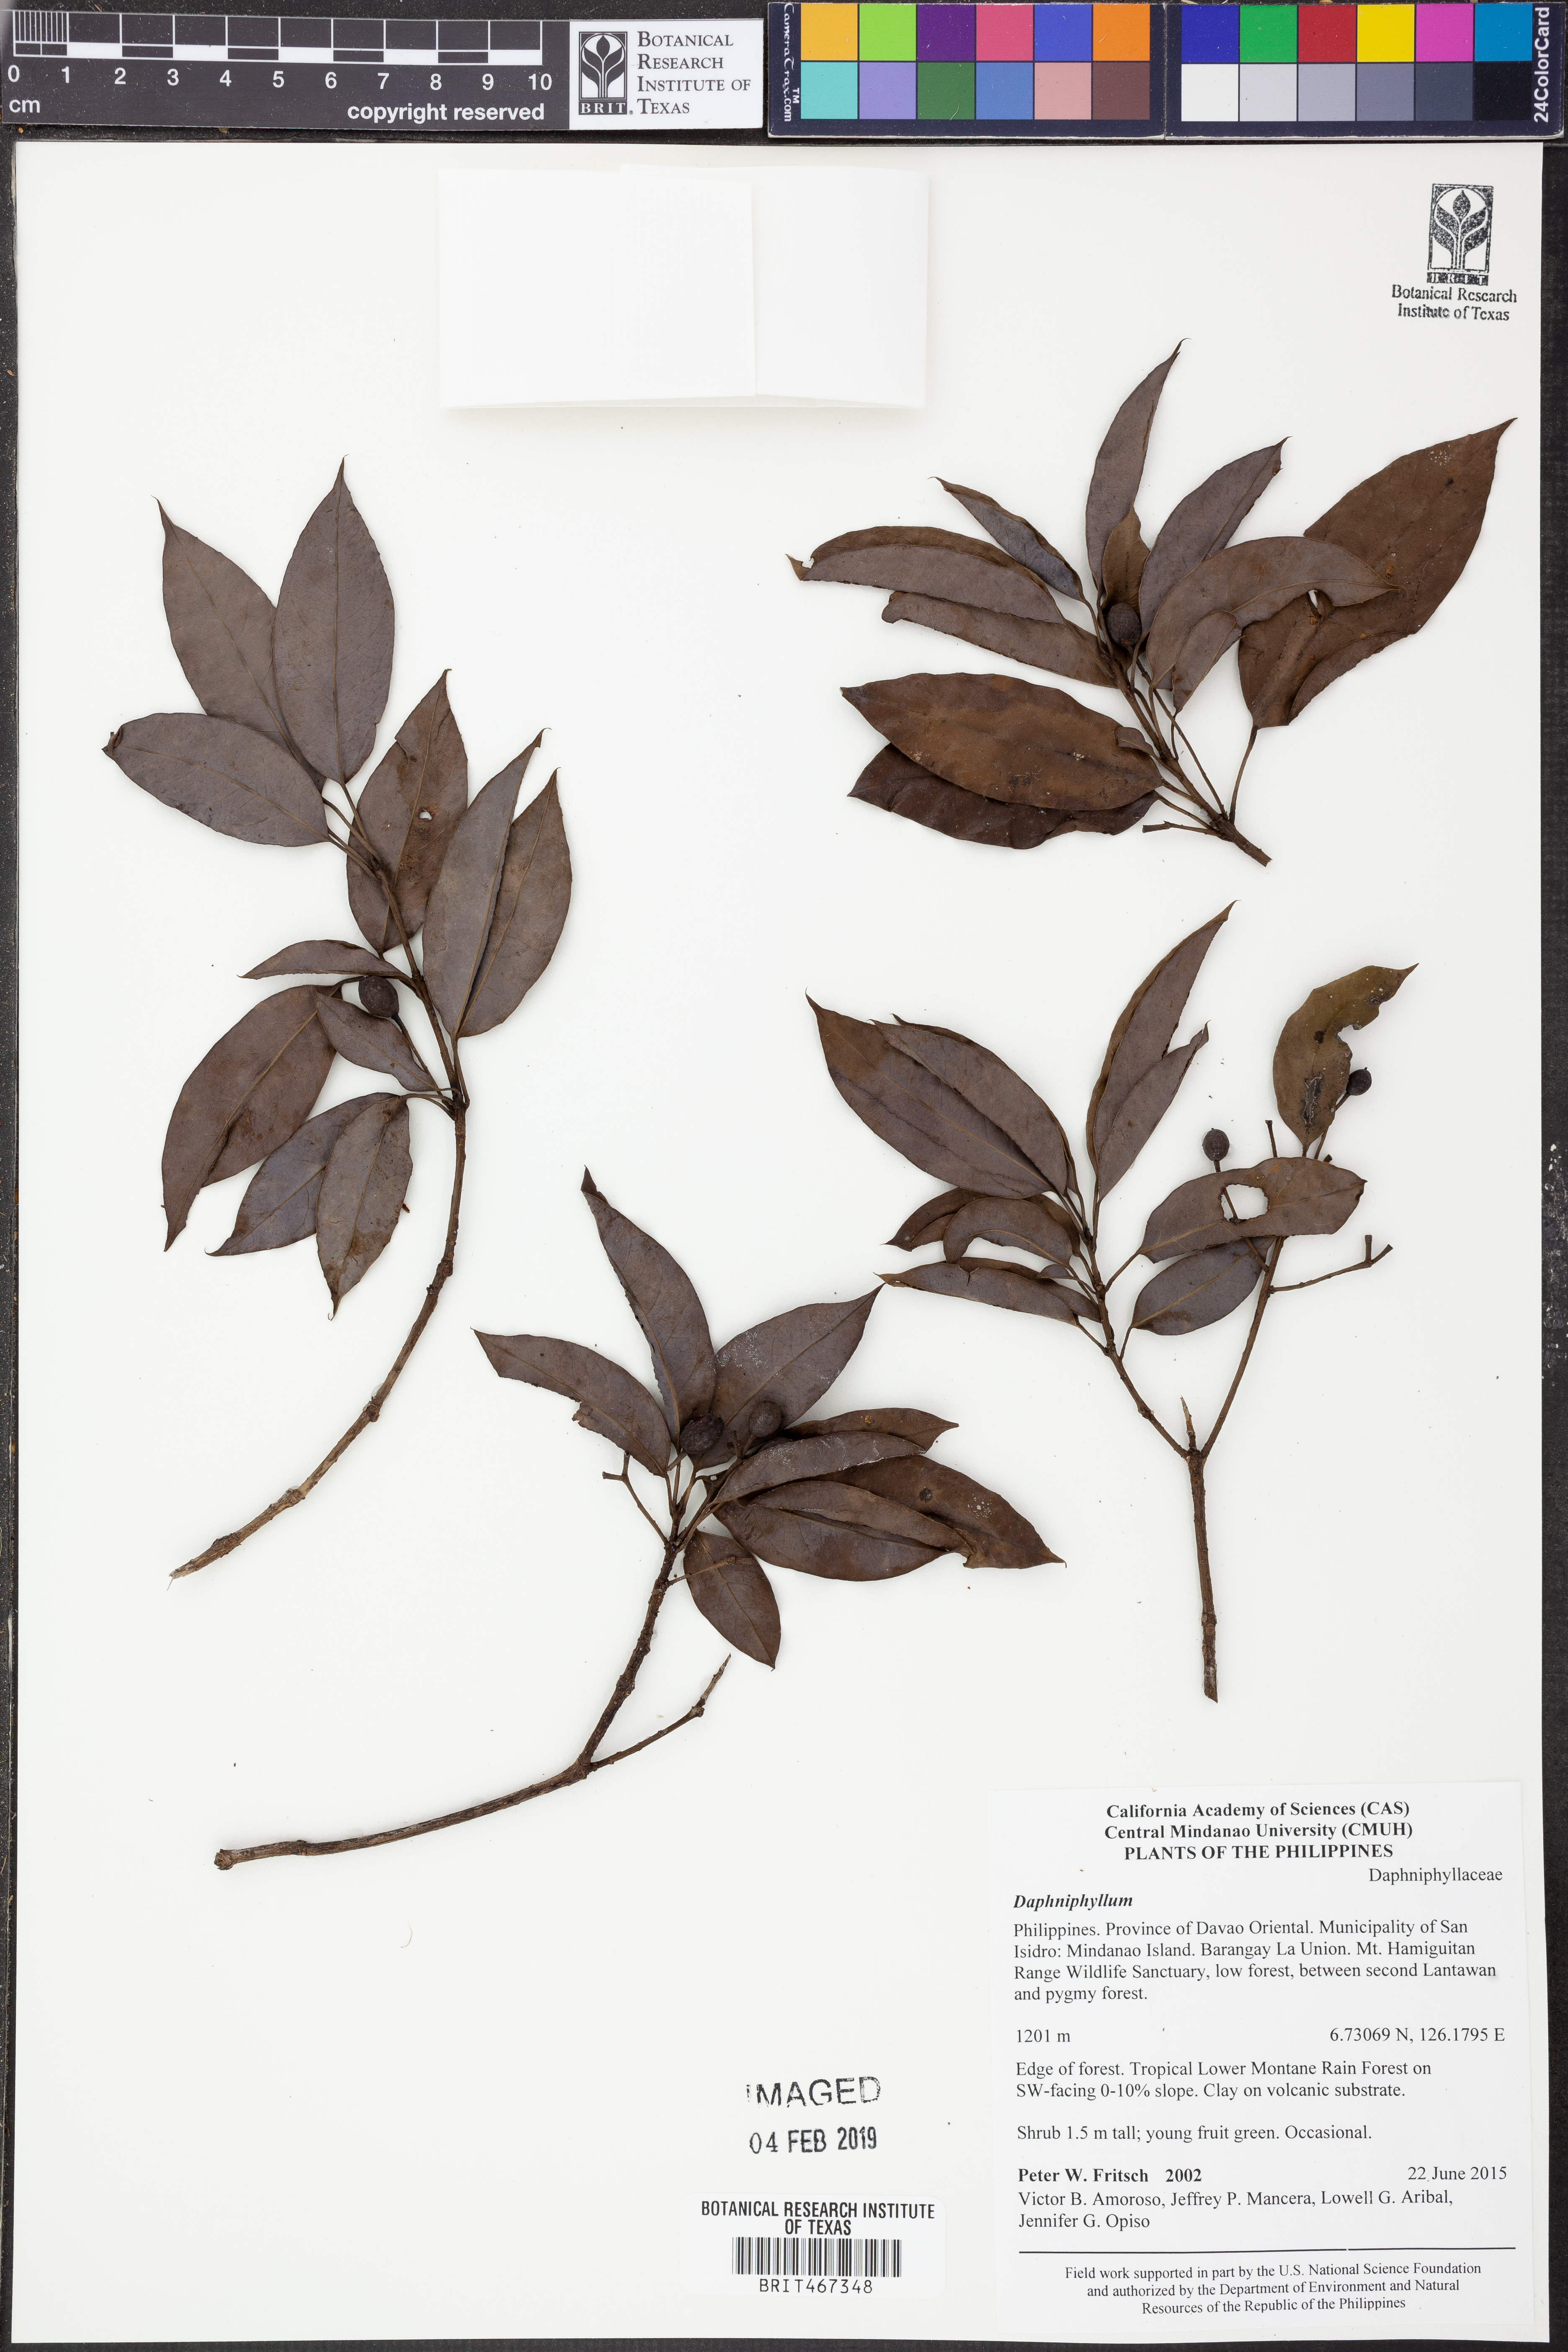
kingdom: Plantae
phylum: Tracheophyta
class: Magnoliopsida
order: Saxifragales
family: Daphniphyllaceae
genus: Daphniphyllum
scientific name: Daphniphyllum
